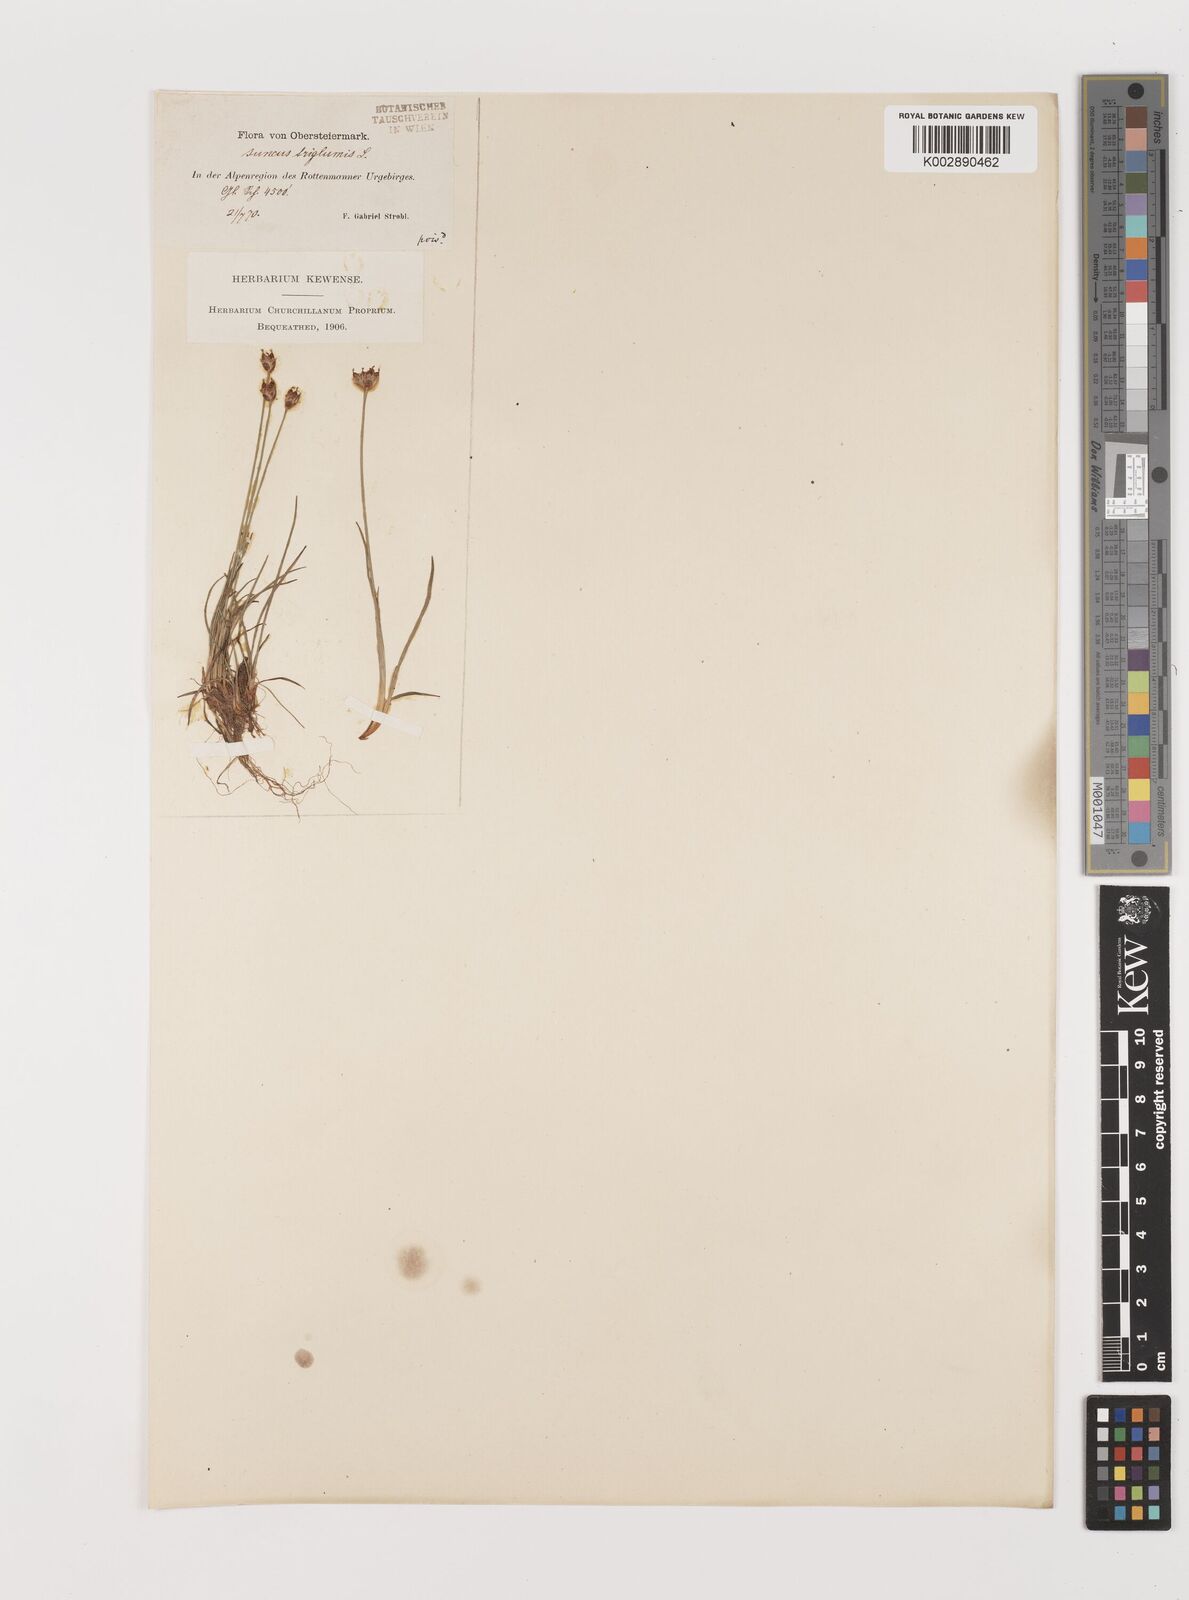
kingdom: Plantae
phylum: Tracheophyta
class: Liliopsida
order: Poales
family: Juncaceae
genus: Juncus
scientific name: Juncus triglumis
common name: Three-flowered rush
